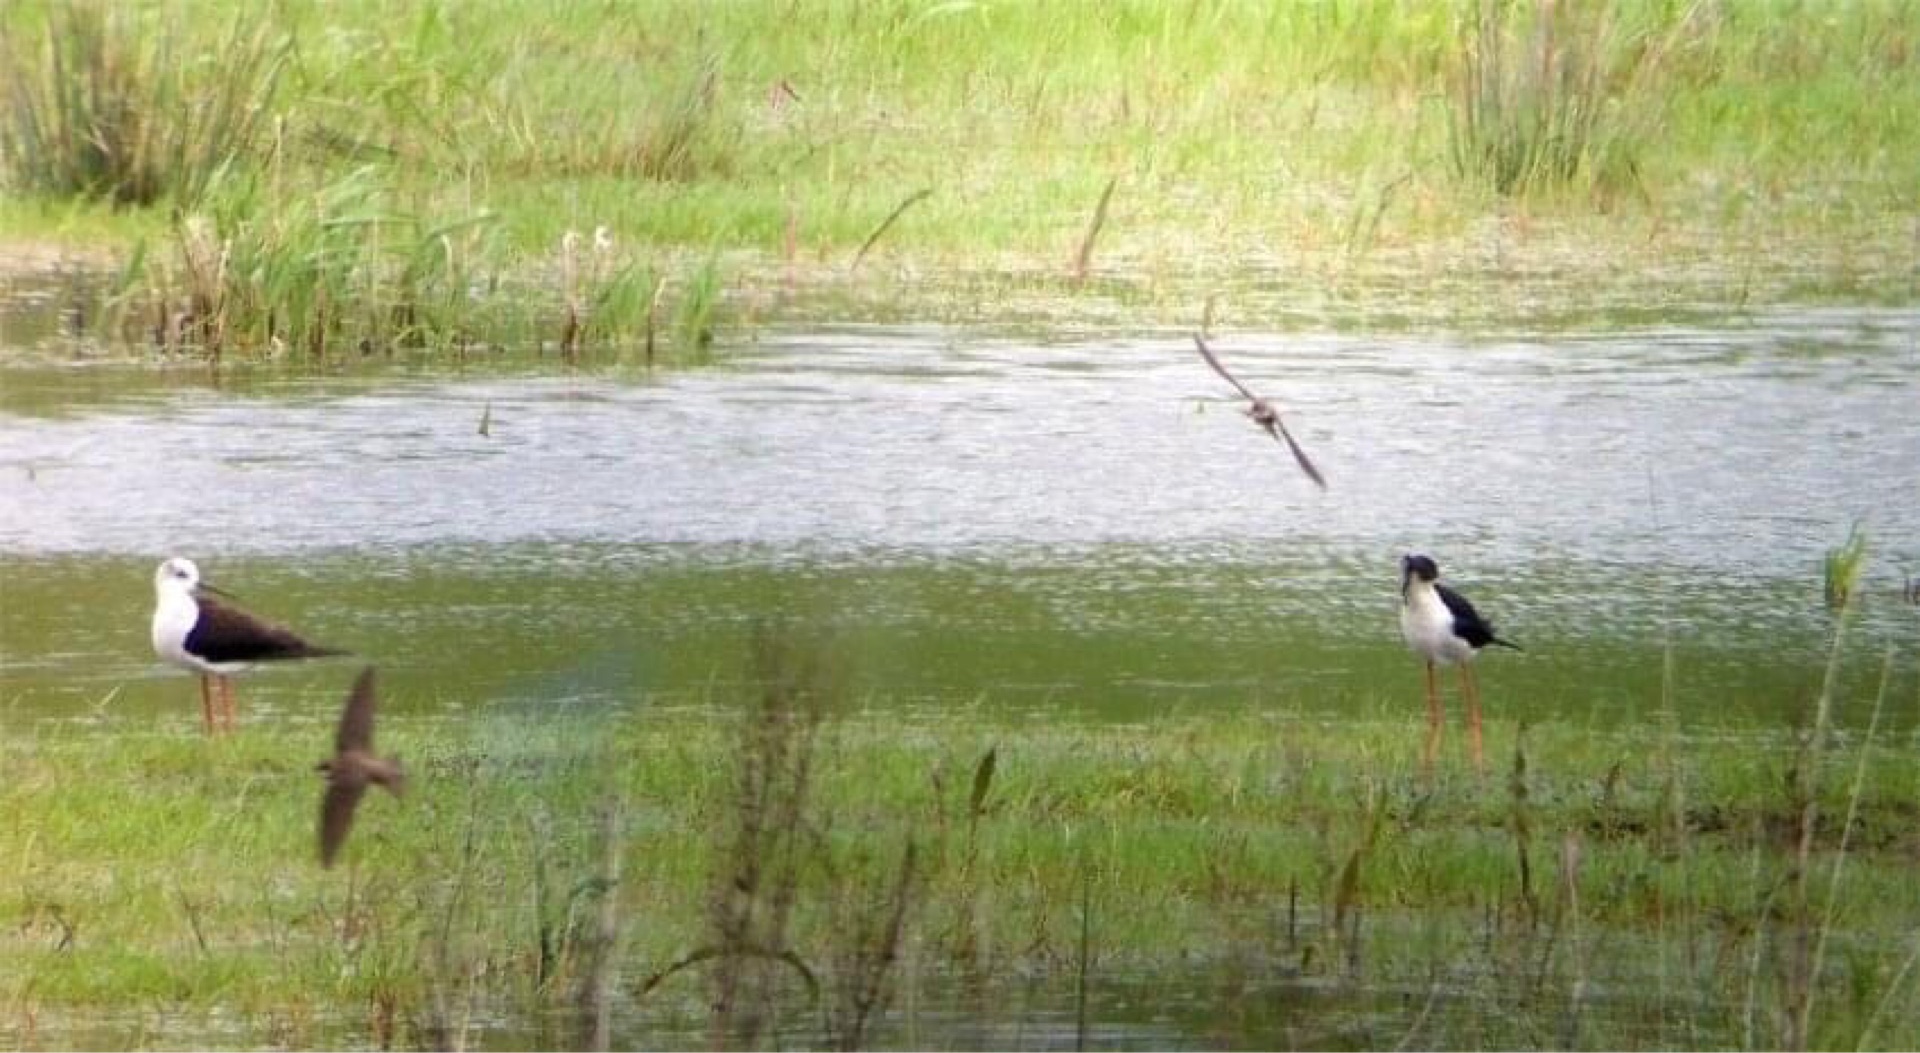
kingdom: Animalia
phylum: Chordata
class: Aves
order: Charadriiformes
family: Recurvirostridae
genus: Himantopus
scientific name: Himantopus himantopus
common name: Stylteløber
